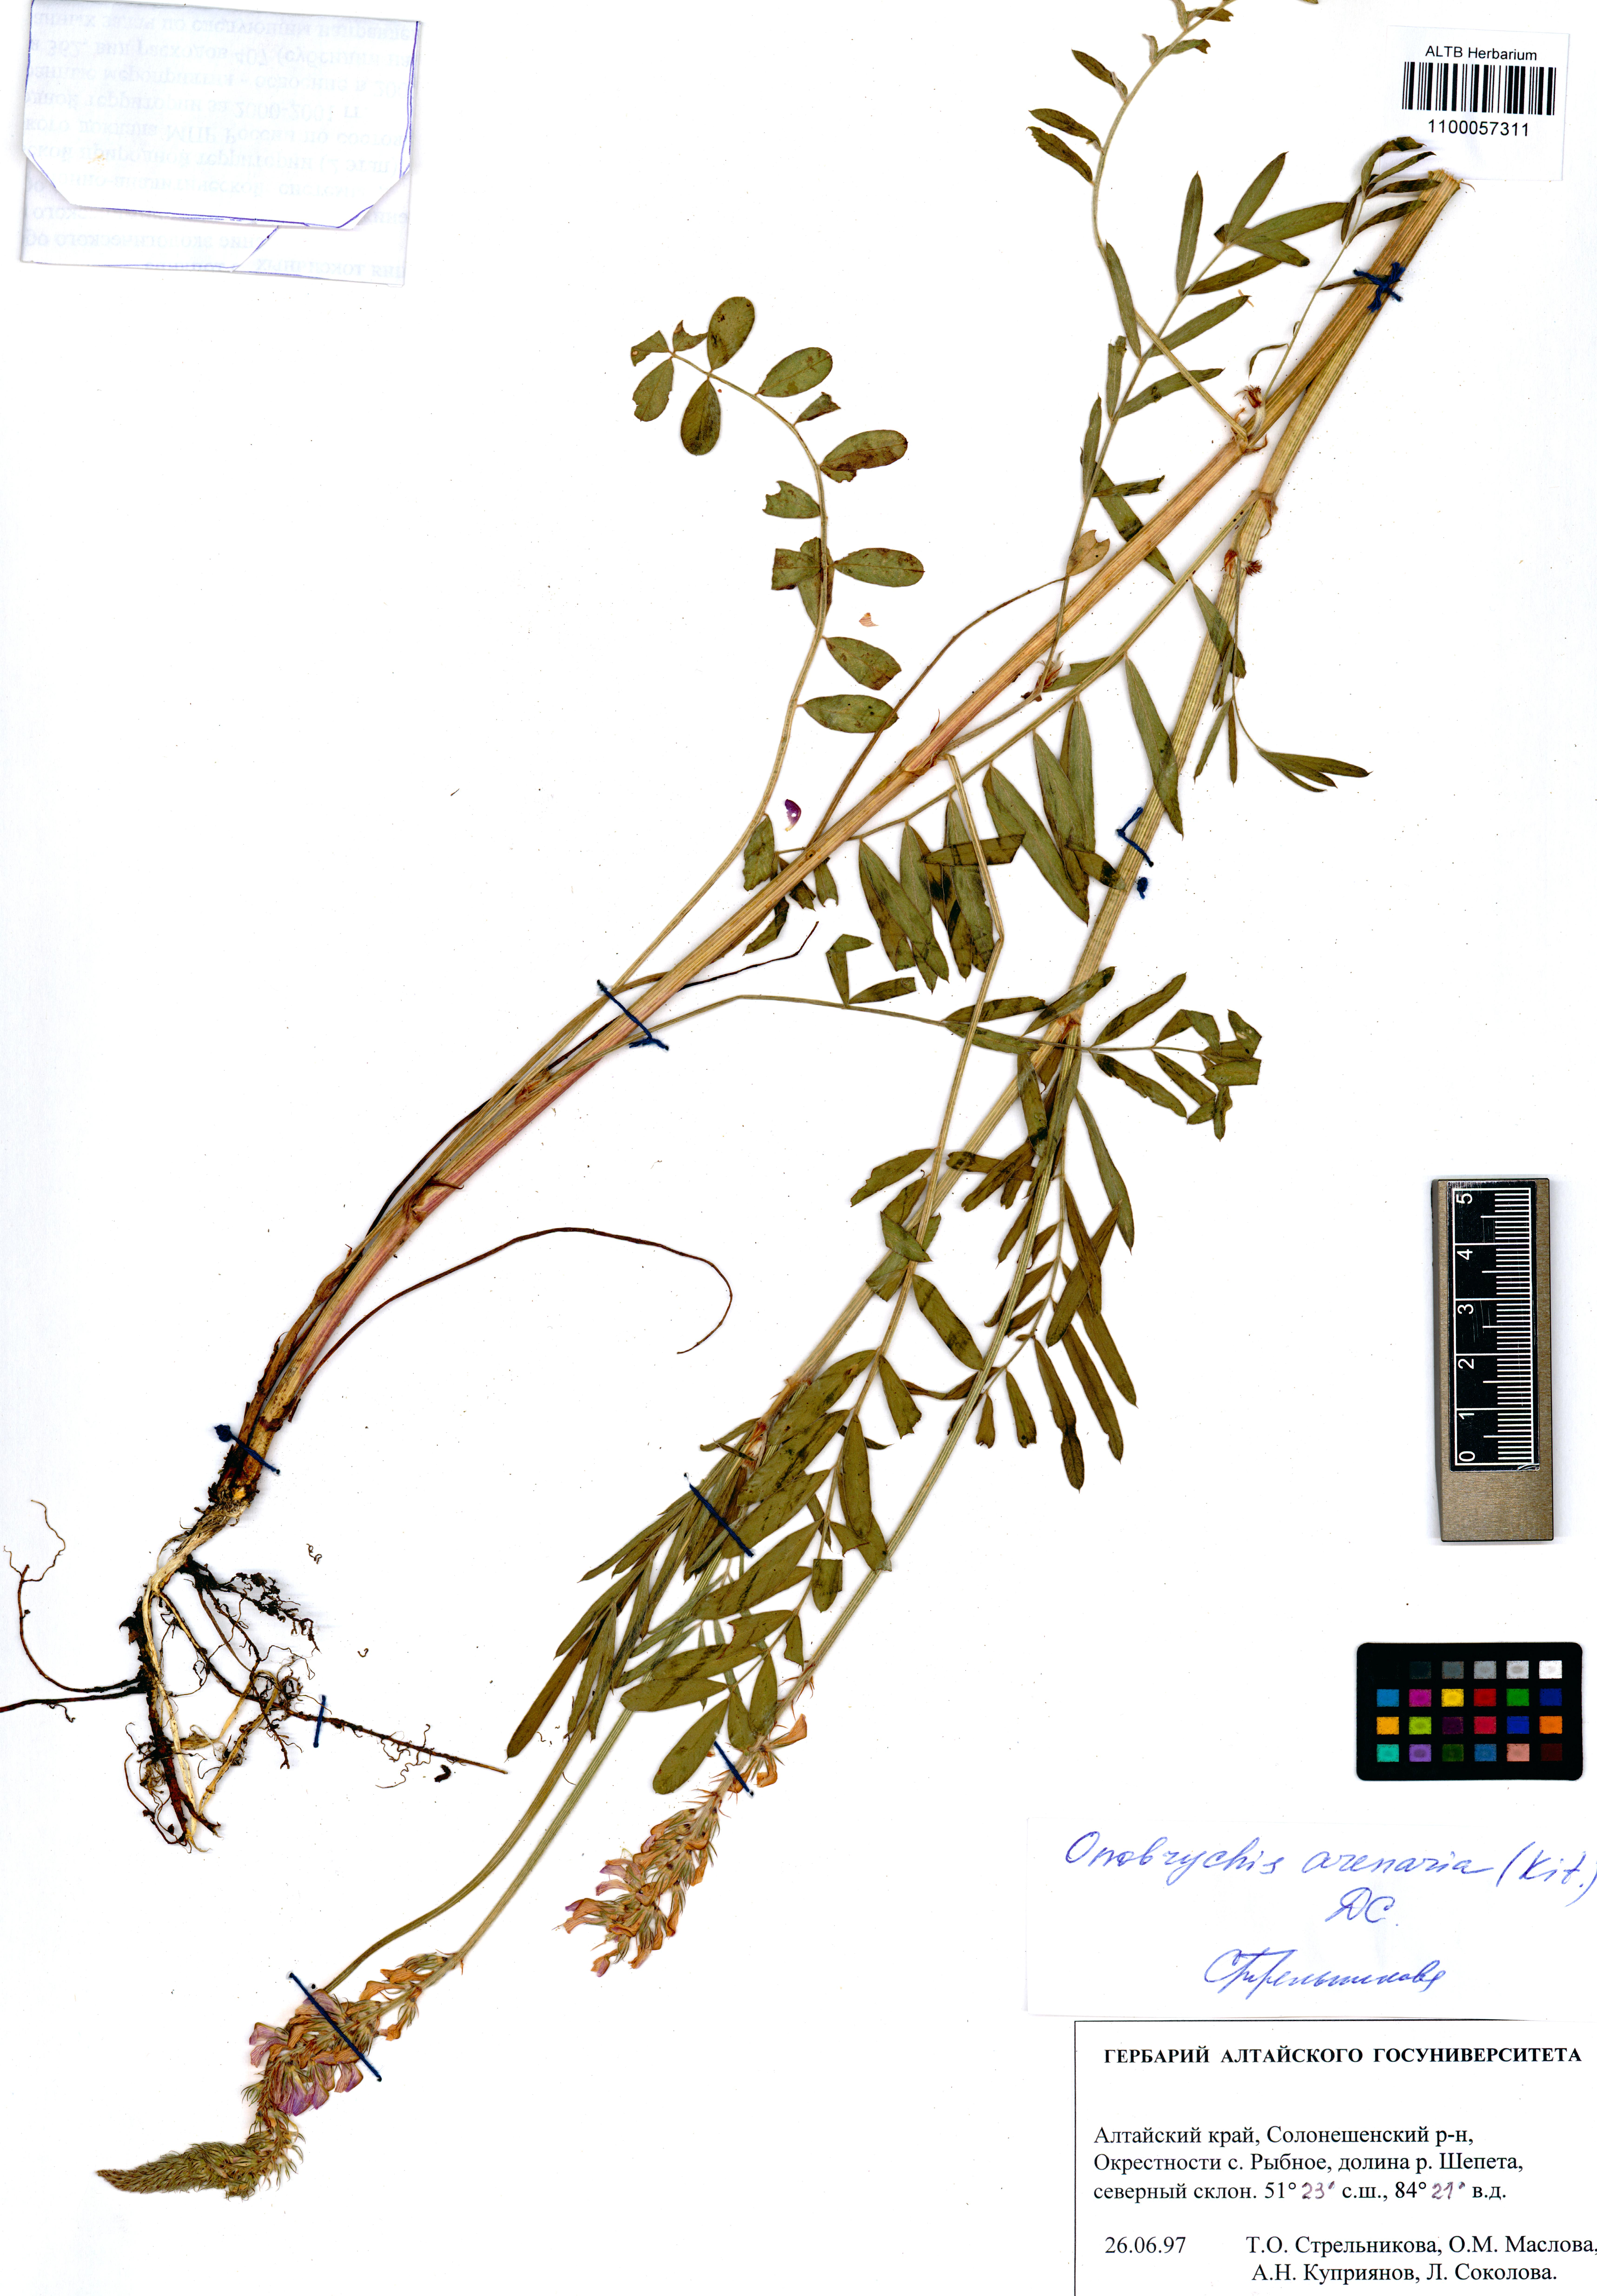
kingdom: Plantae
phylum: Tracheophyta
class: Magnoliopsida
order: Fabales
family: Fabaceae
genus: Onobrychis
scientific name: Onobrychis arenaria
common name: Sand esparcet
